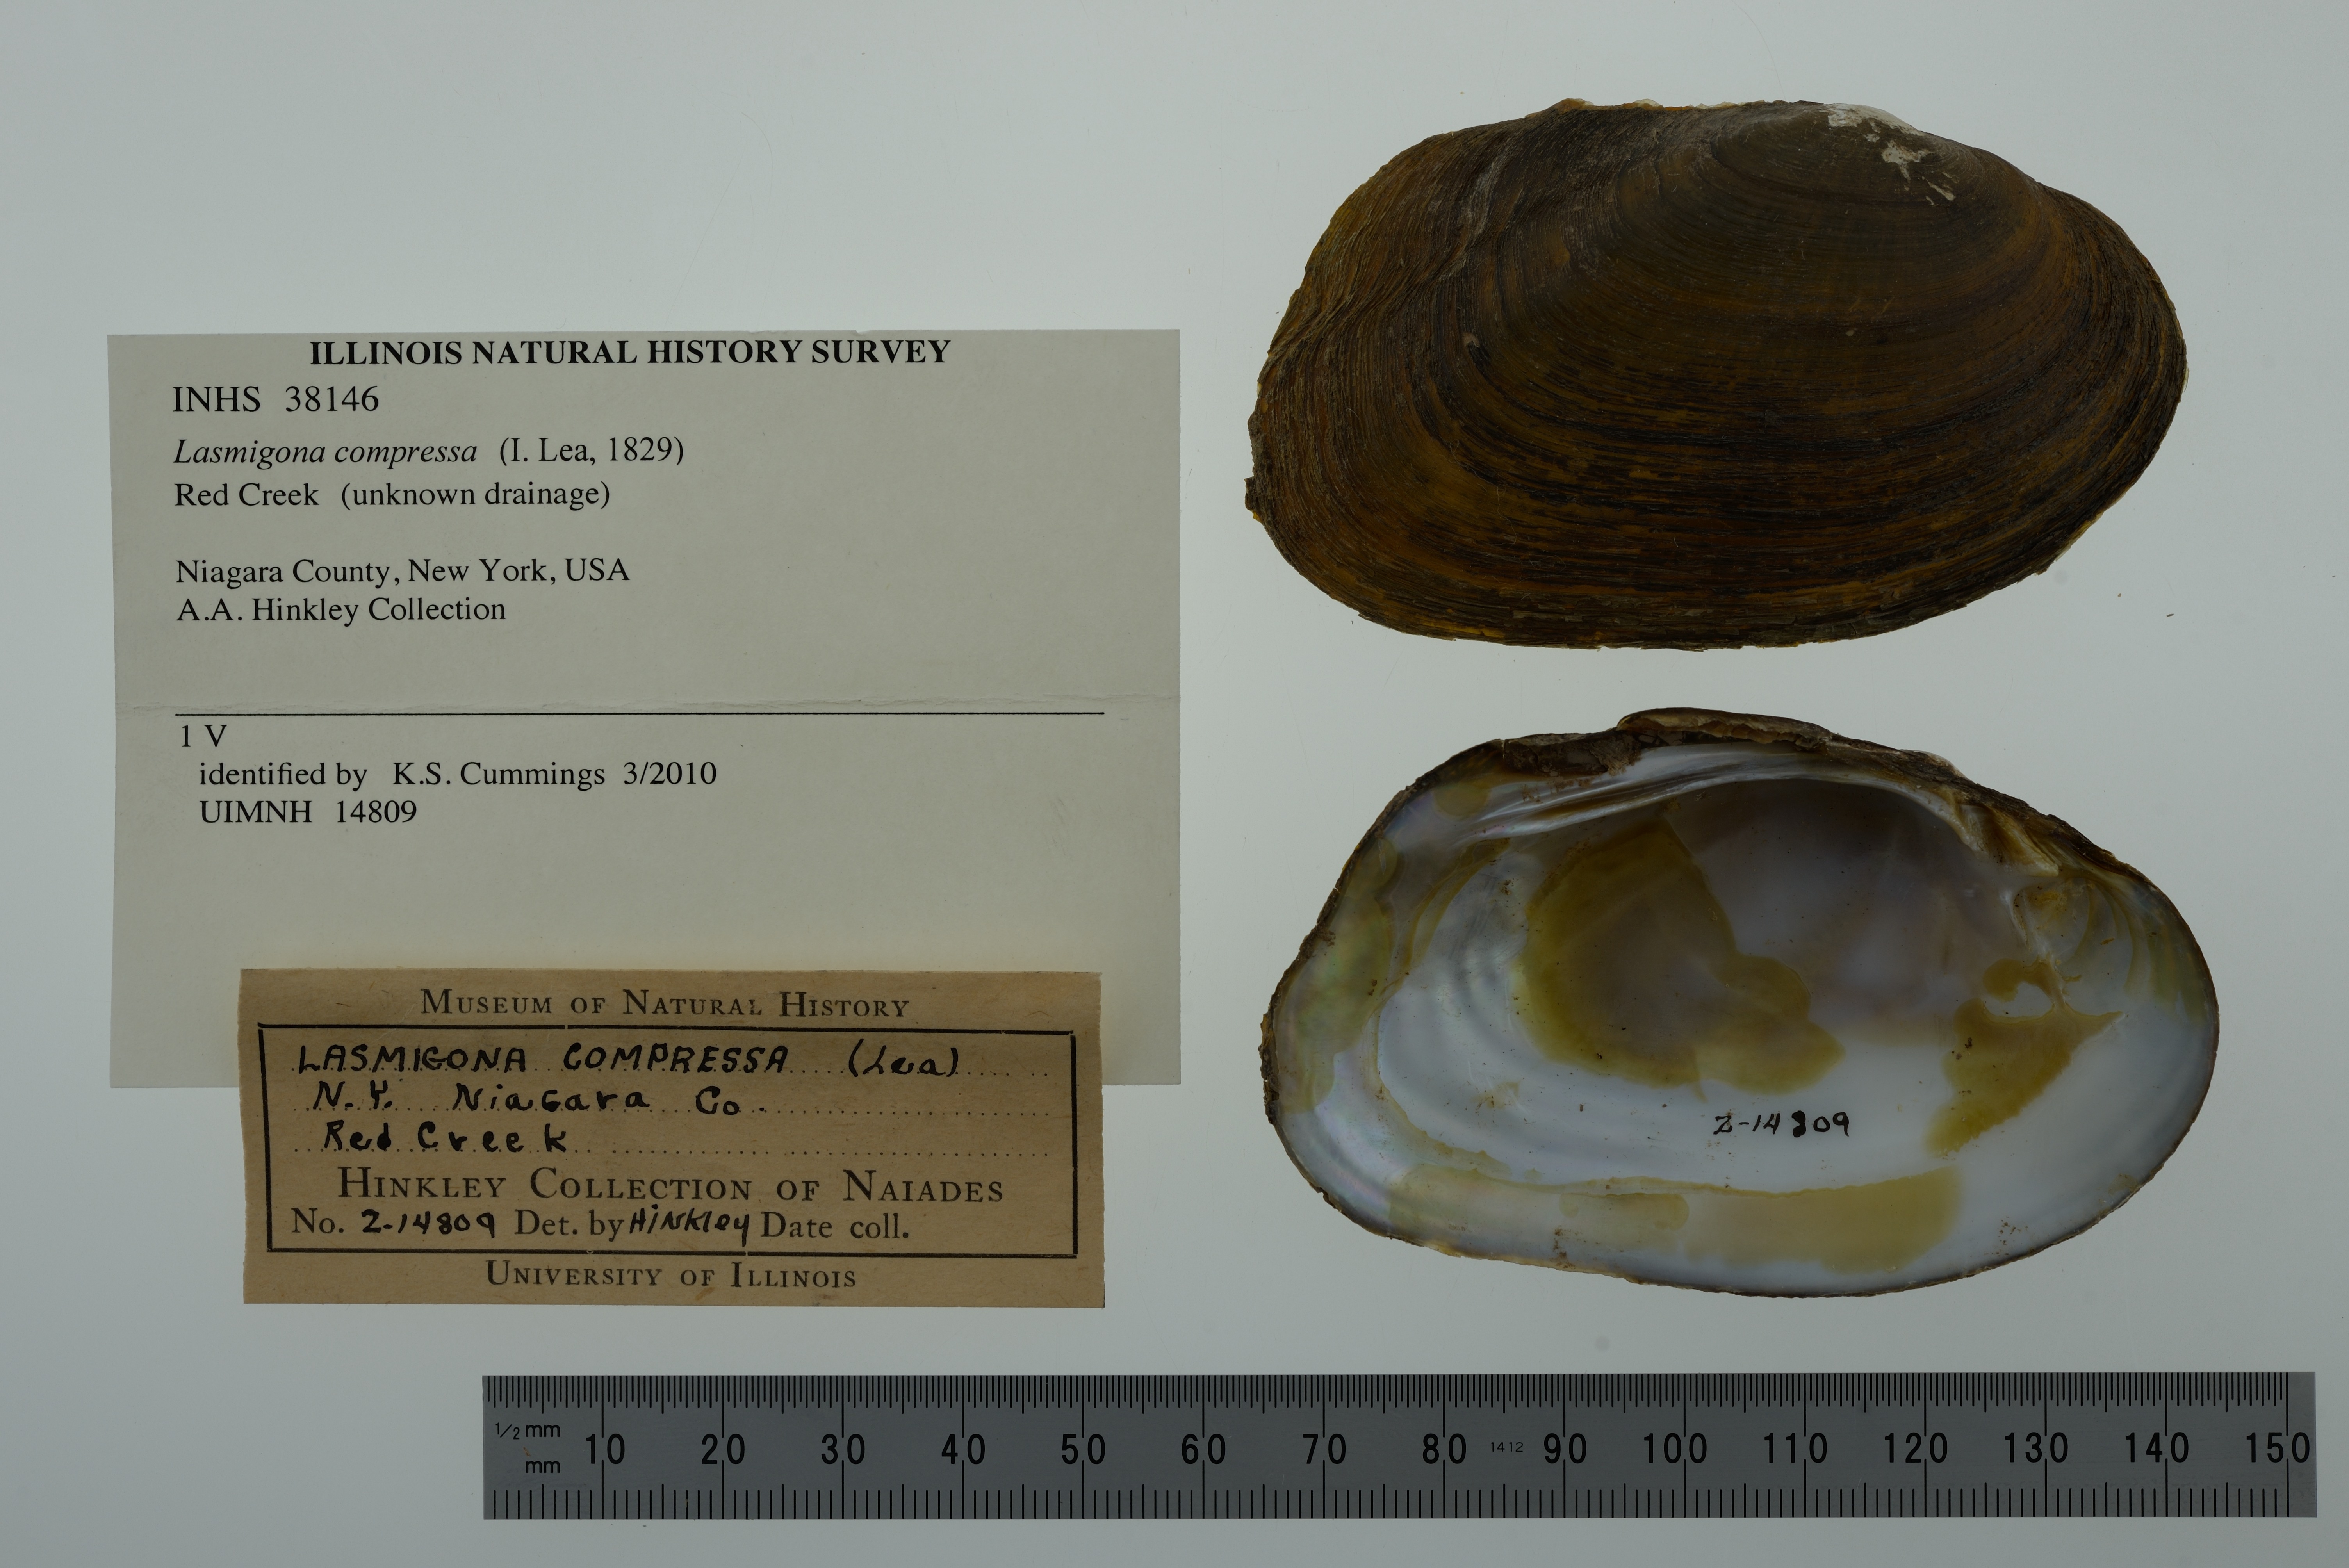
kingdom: Animalia
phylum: Mollusca
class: Bivalvia
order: Unionida
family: Unionidae
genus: Lasmigona
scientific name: Lasmigona compressa
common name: Creek heelsplitter
